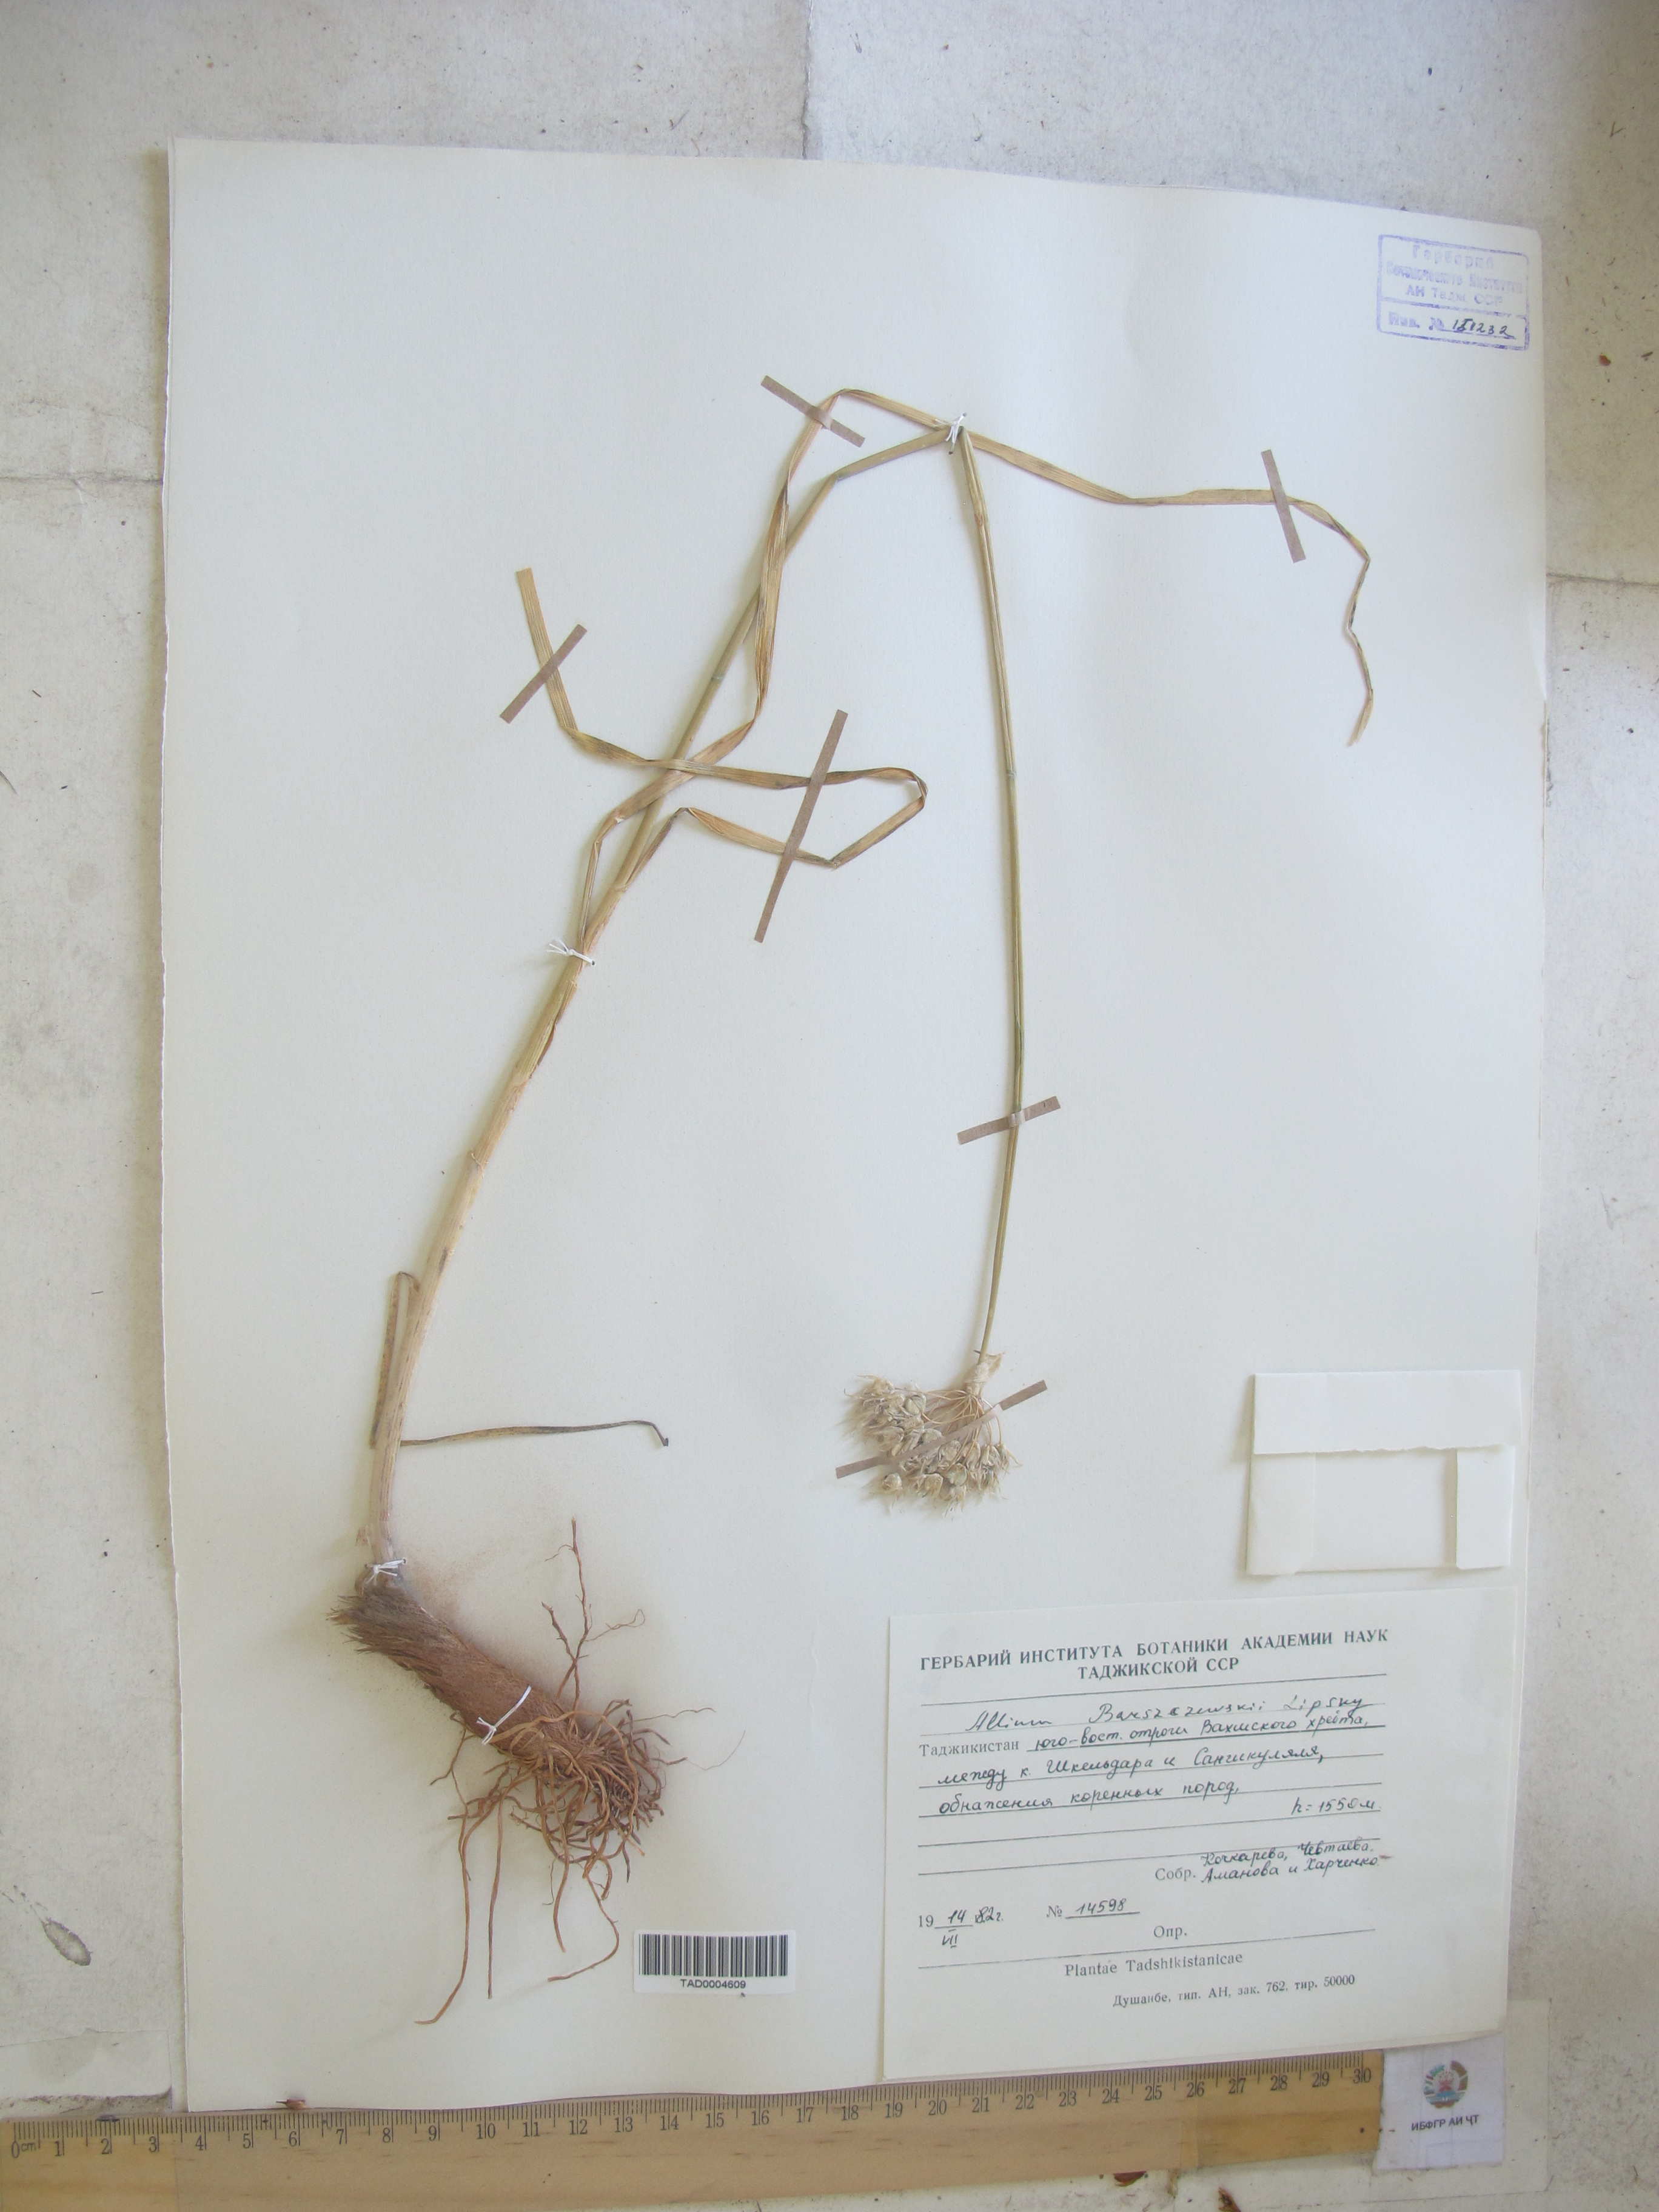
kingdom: Plantae
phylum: Tracheophyta
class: Liliopsida
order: Asparagales
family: Amaryllidaceae
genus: Allium
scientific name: Allium barsczewskii
